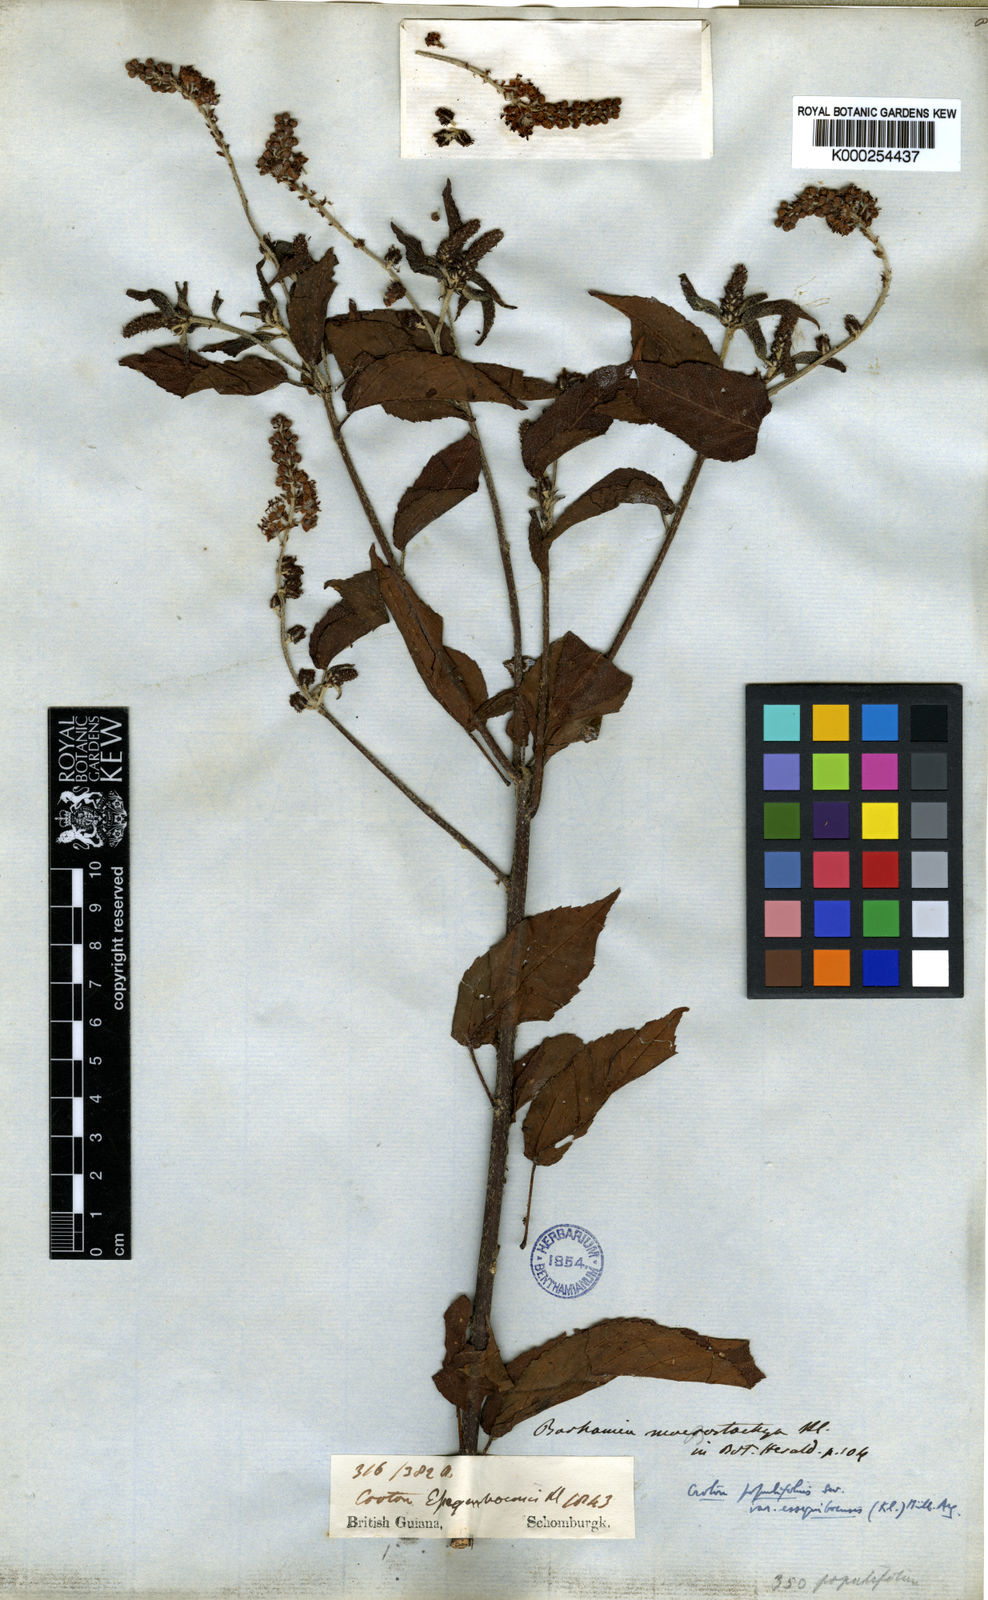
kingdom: Plantae
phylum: Tracheophyta
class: Magnoliopsida
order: Malpighiales
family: Euphorbiaceae
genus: Croton
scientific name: Croton essequiboensis
